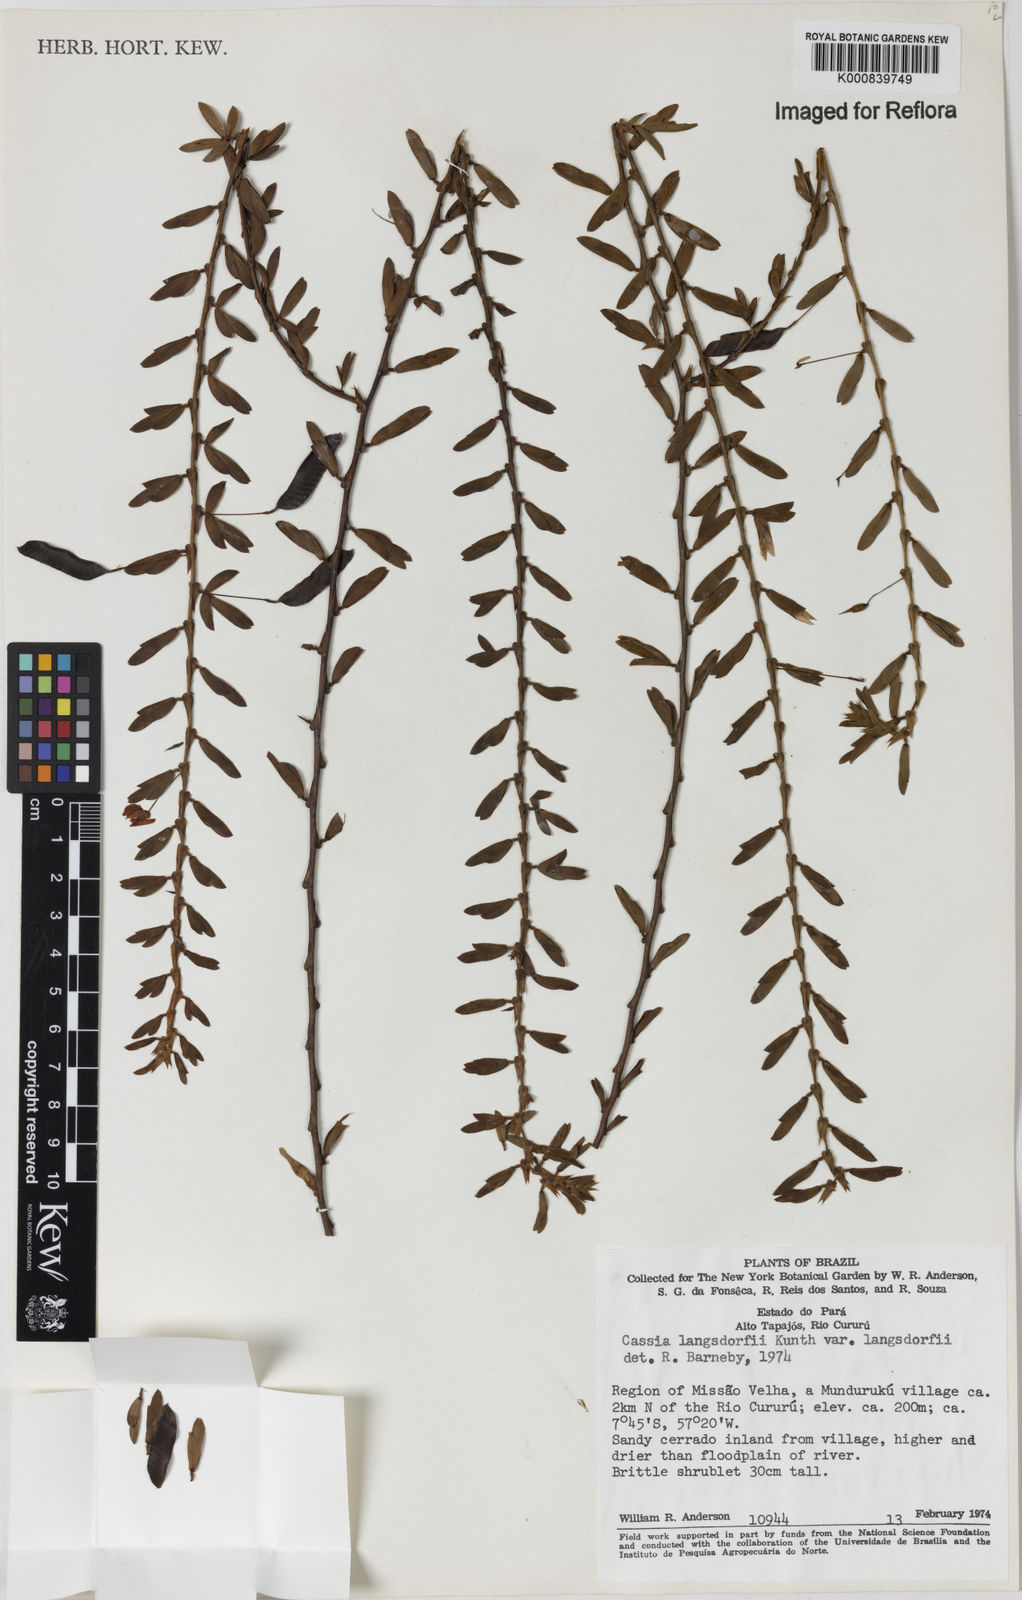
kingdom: Plantae
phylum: Tracheophyta
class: Magnoliopsida
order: Fabales
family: Fabaceae
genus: Chamaecrista
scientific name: Chamaecrista langsdorffii
